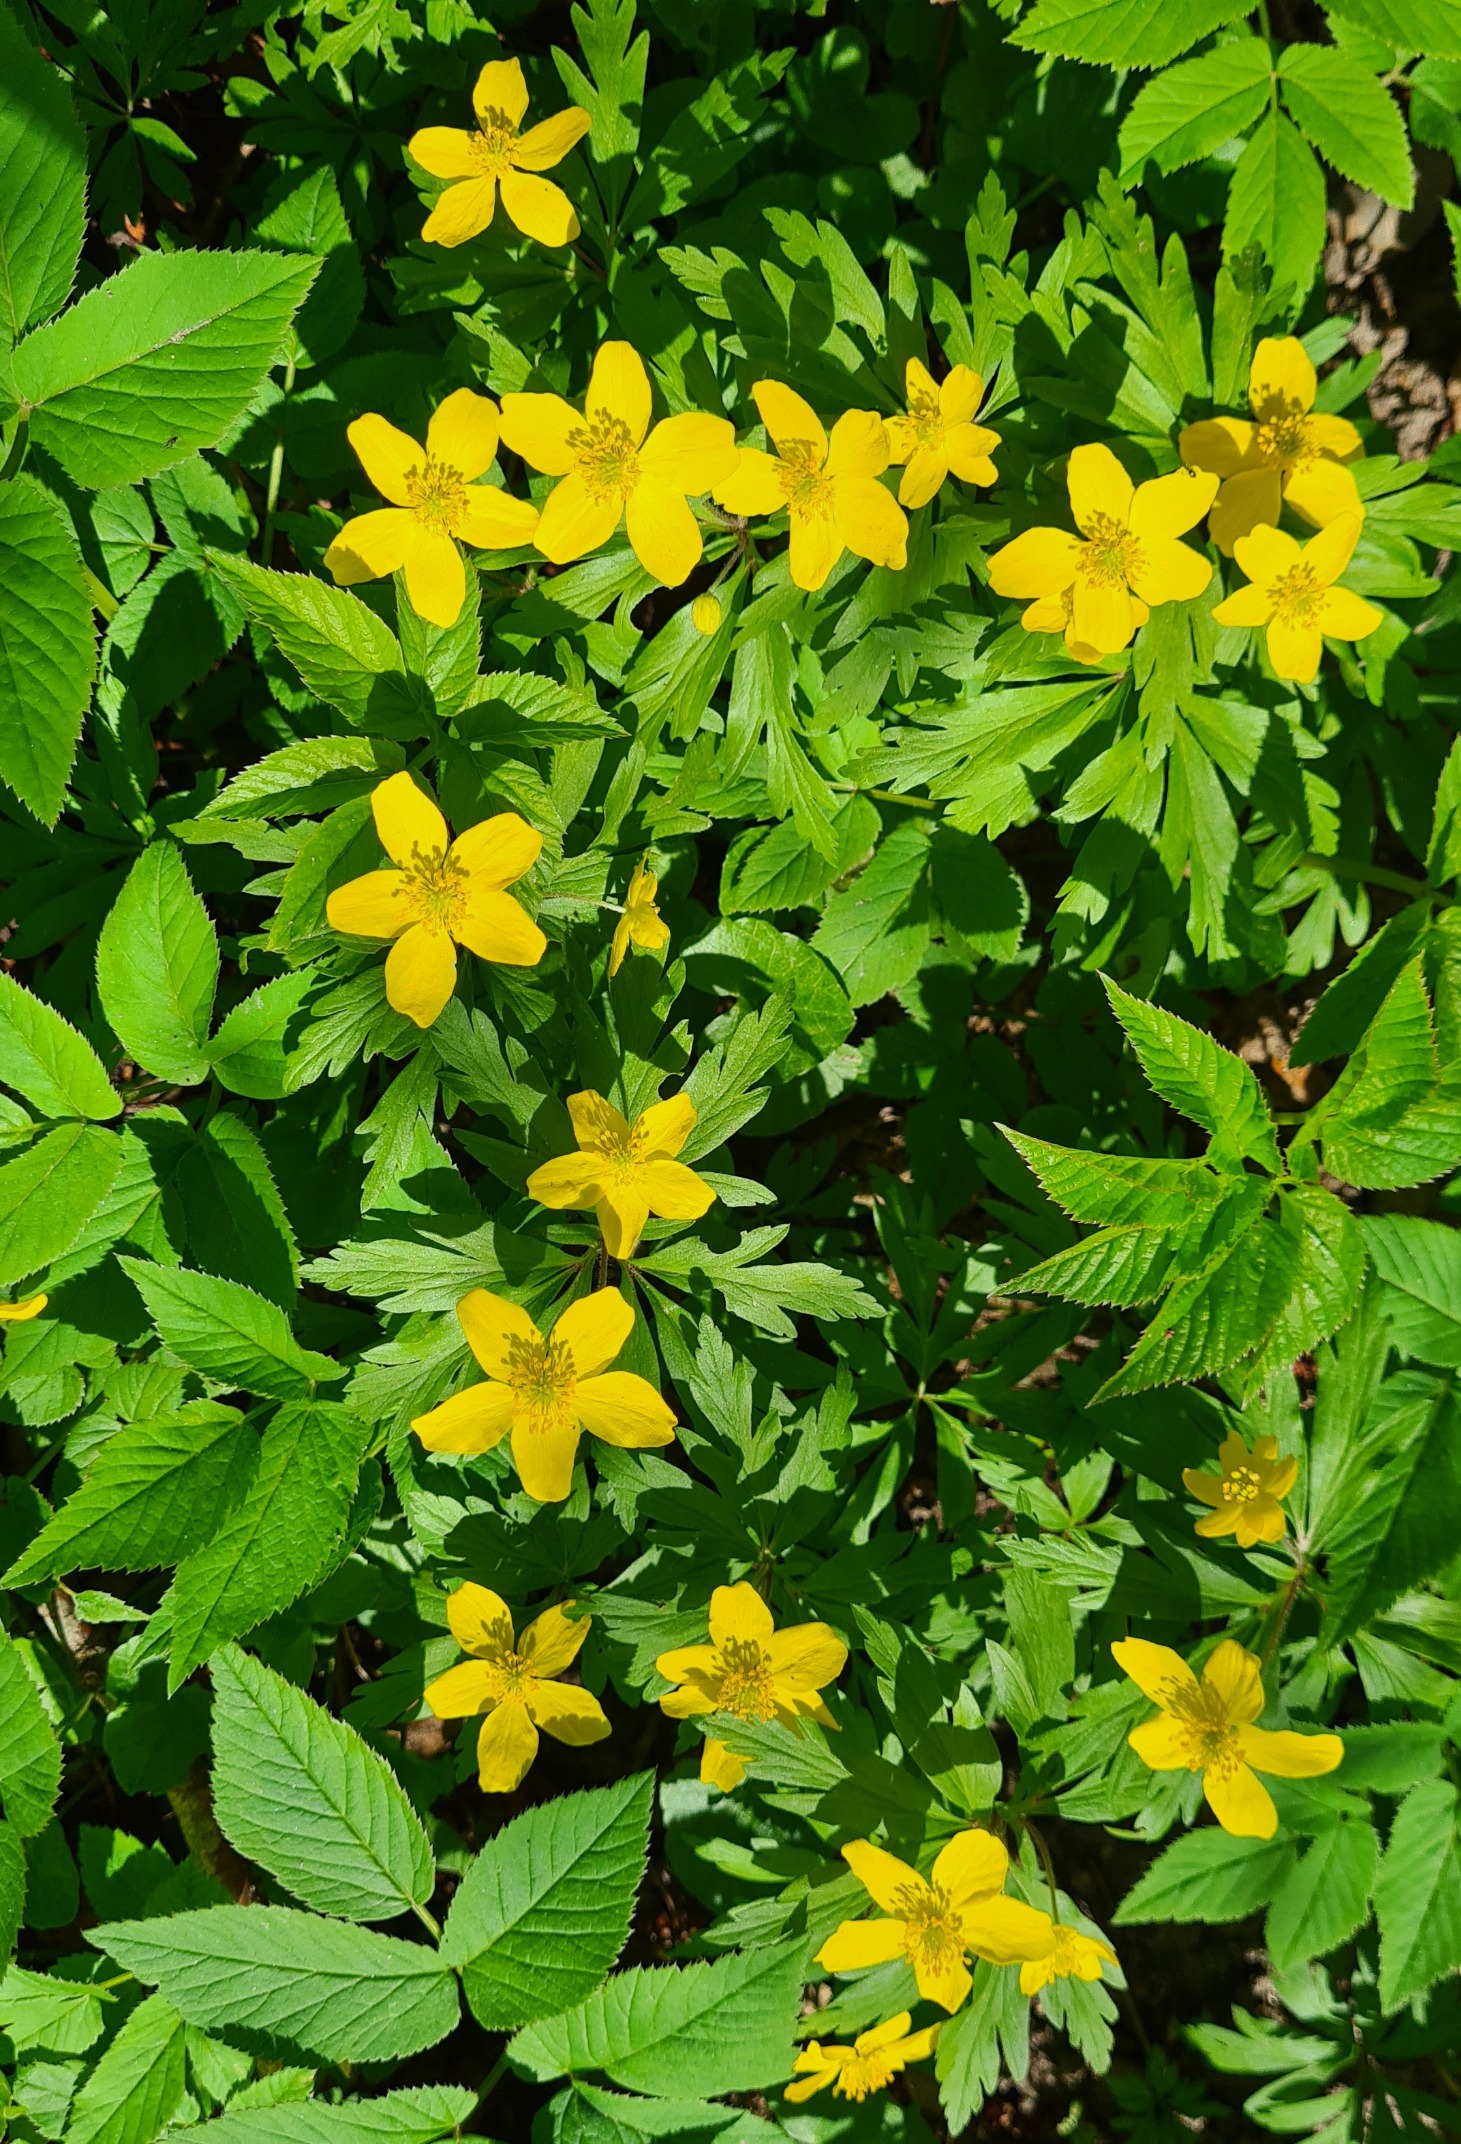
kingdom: Plantae
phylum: Tracheophyta
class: Magnoliopsida
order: Ranunculales
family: Ranunculaceae
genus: Anemone
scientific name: Anemone ranunculoides
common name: Gul anemone
